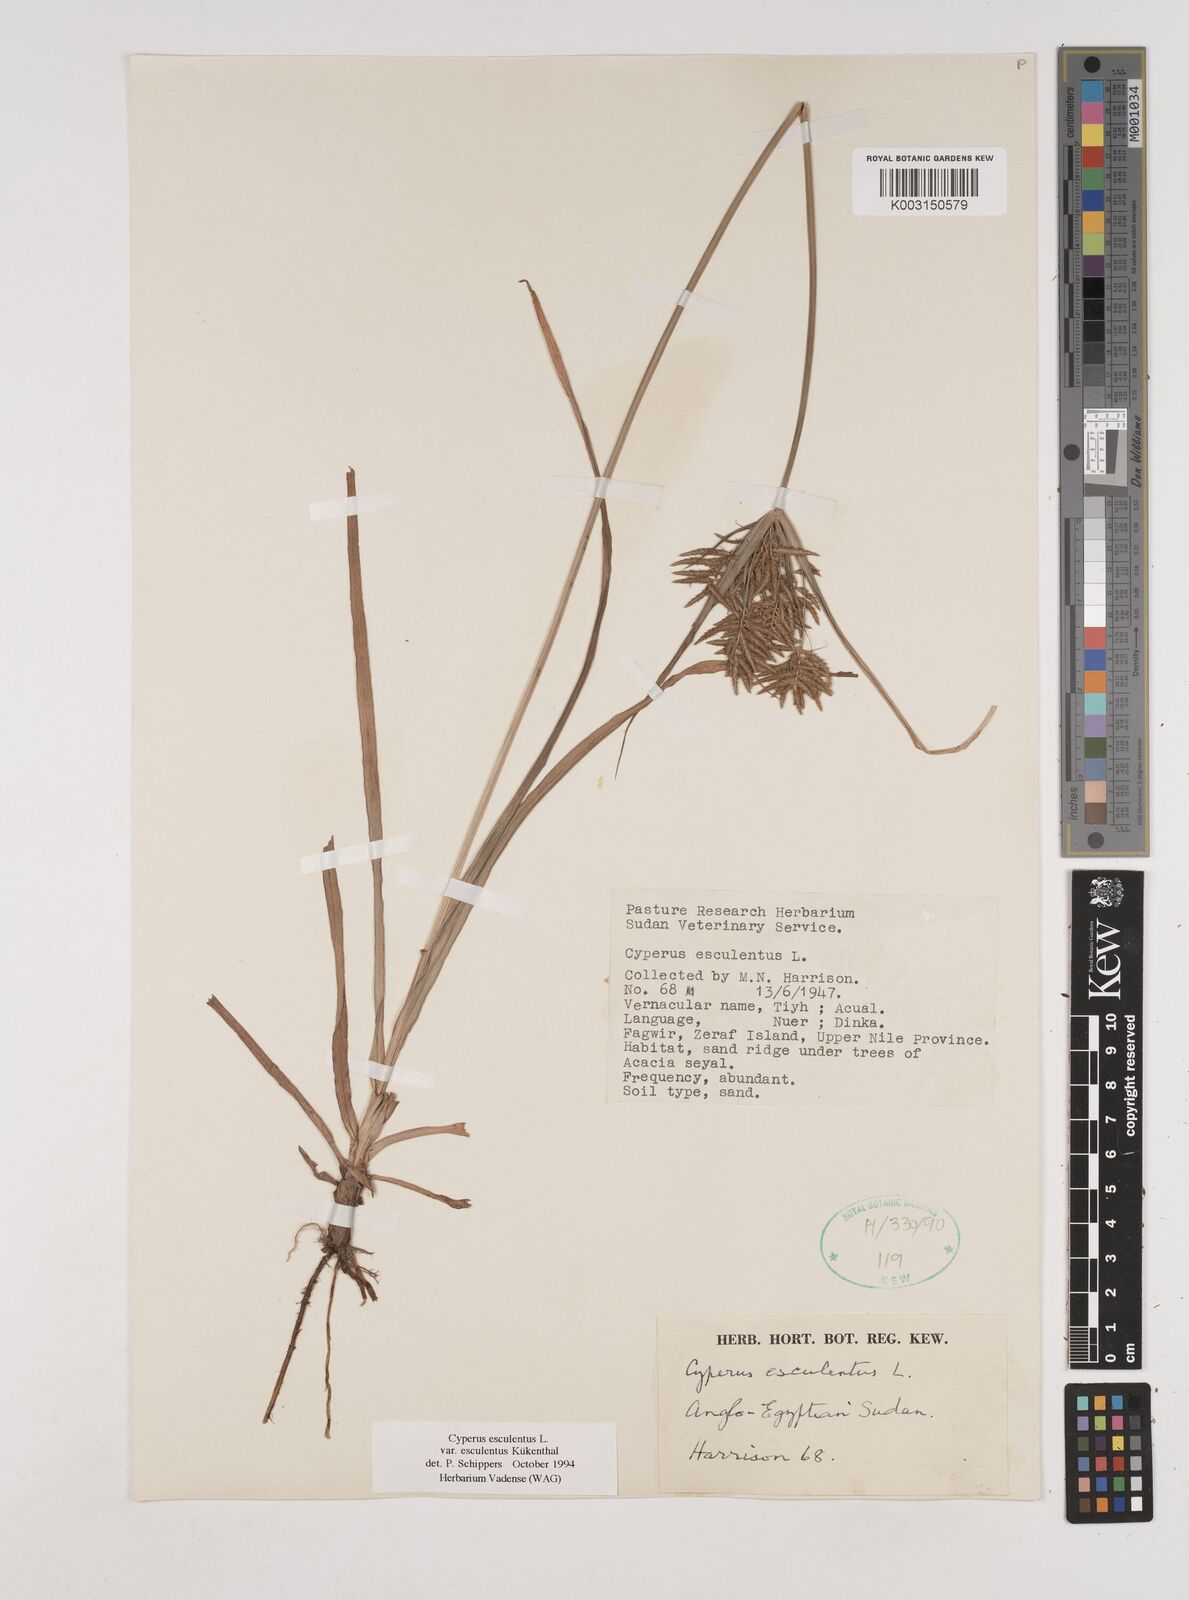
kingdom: Plantae
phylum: Tracheophyta
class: Liliopsida
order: Poales
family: Cyperaceae
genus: Cyperus
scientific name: Cyperus esculentus
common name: Yellow nutsedge
